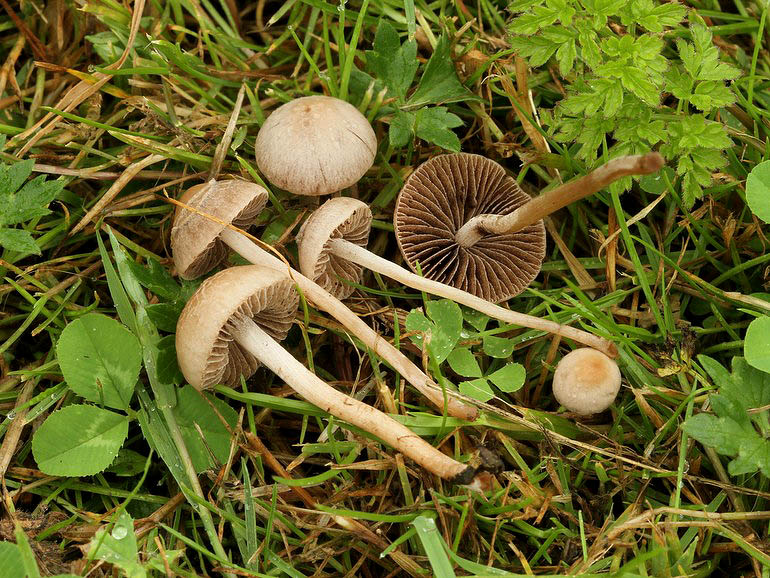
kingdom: Fungi
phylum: Basidiomycota
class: Agaricomycetes
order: Agaricales
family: Bolbitiaceae
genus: Panaeolina
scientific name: Panaeolina foenisecii
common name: høslætsvamp
